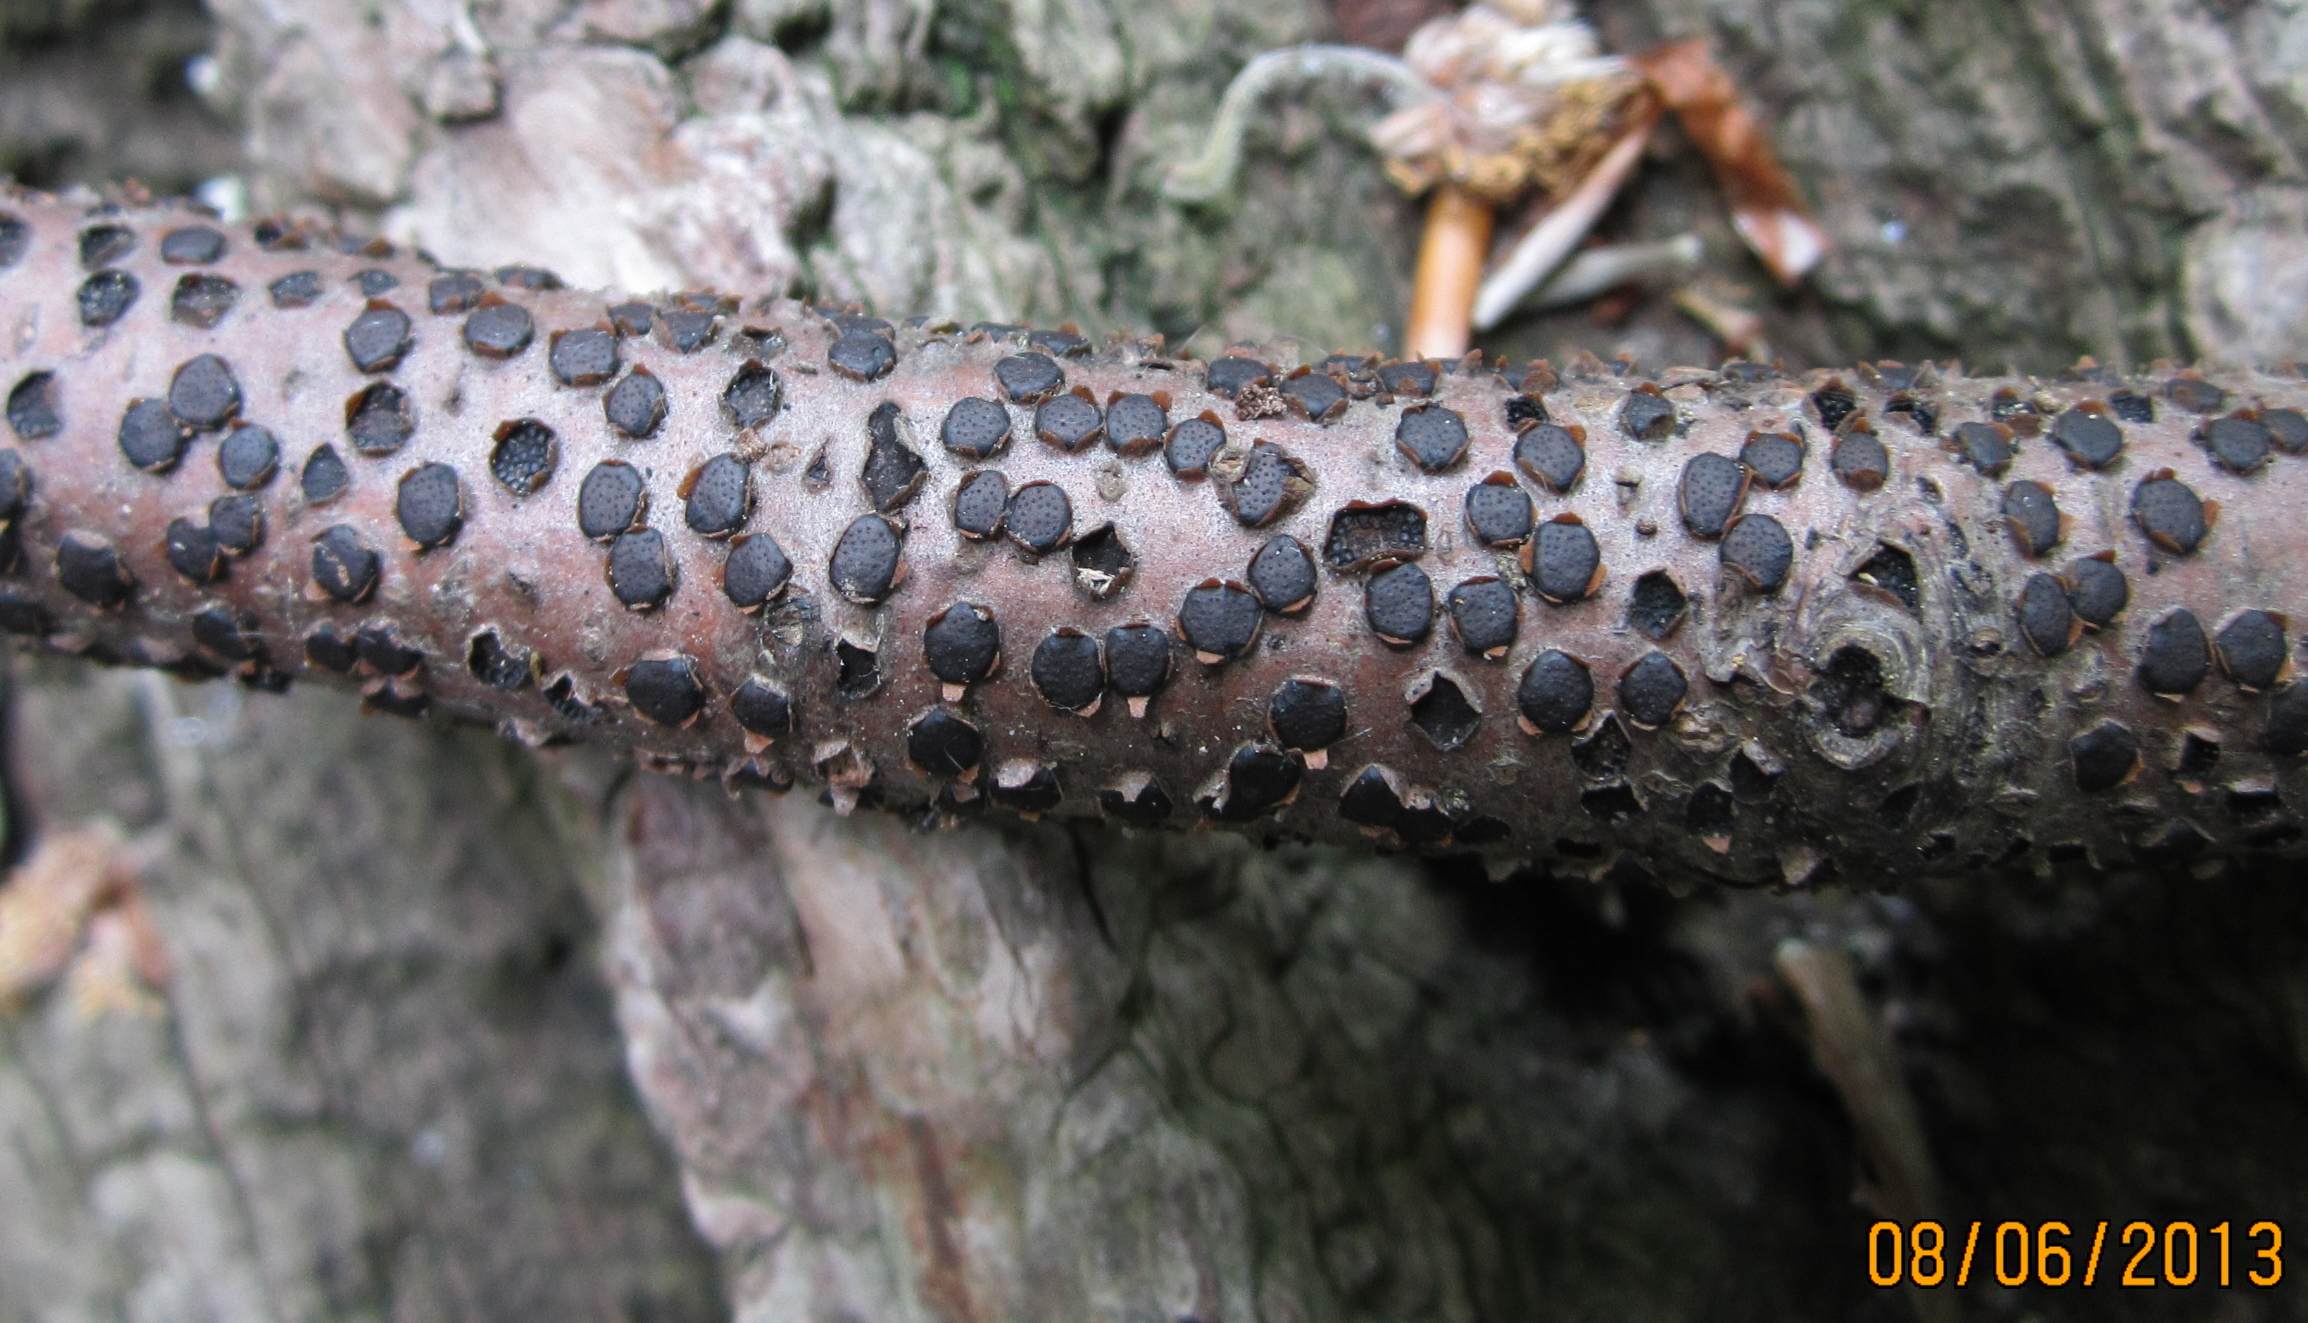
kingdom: Fungi
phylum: Ascomycota
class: Sordariomycetes
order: Xylariales
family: Diatrypaceae
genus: Diatrype
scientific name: Diatrype disciformis
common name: kant-kulskorpe
